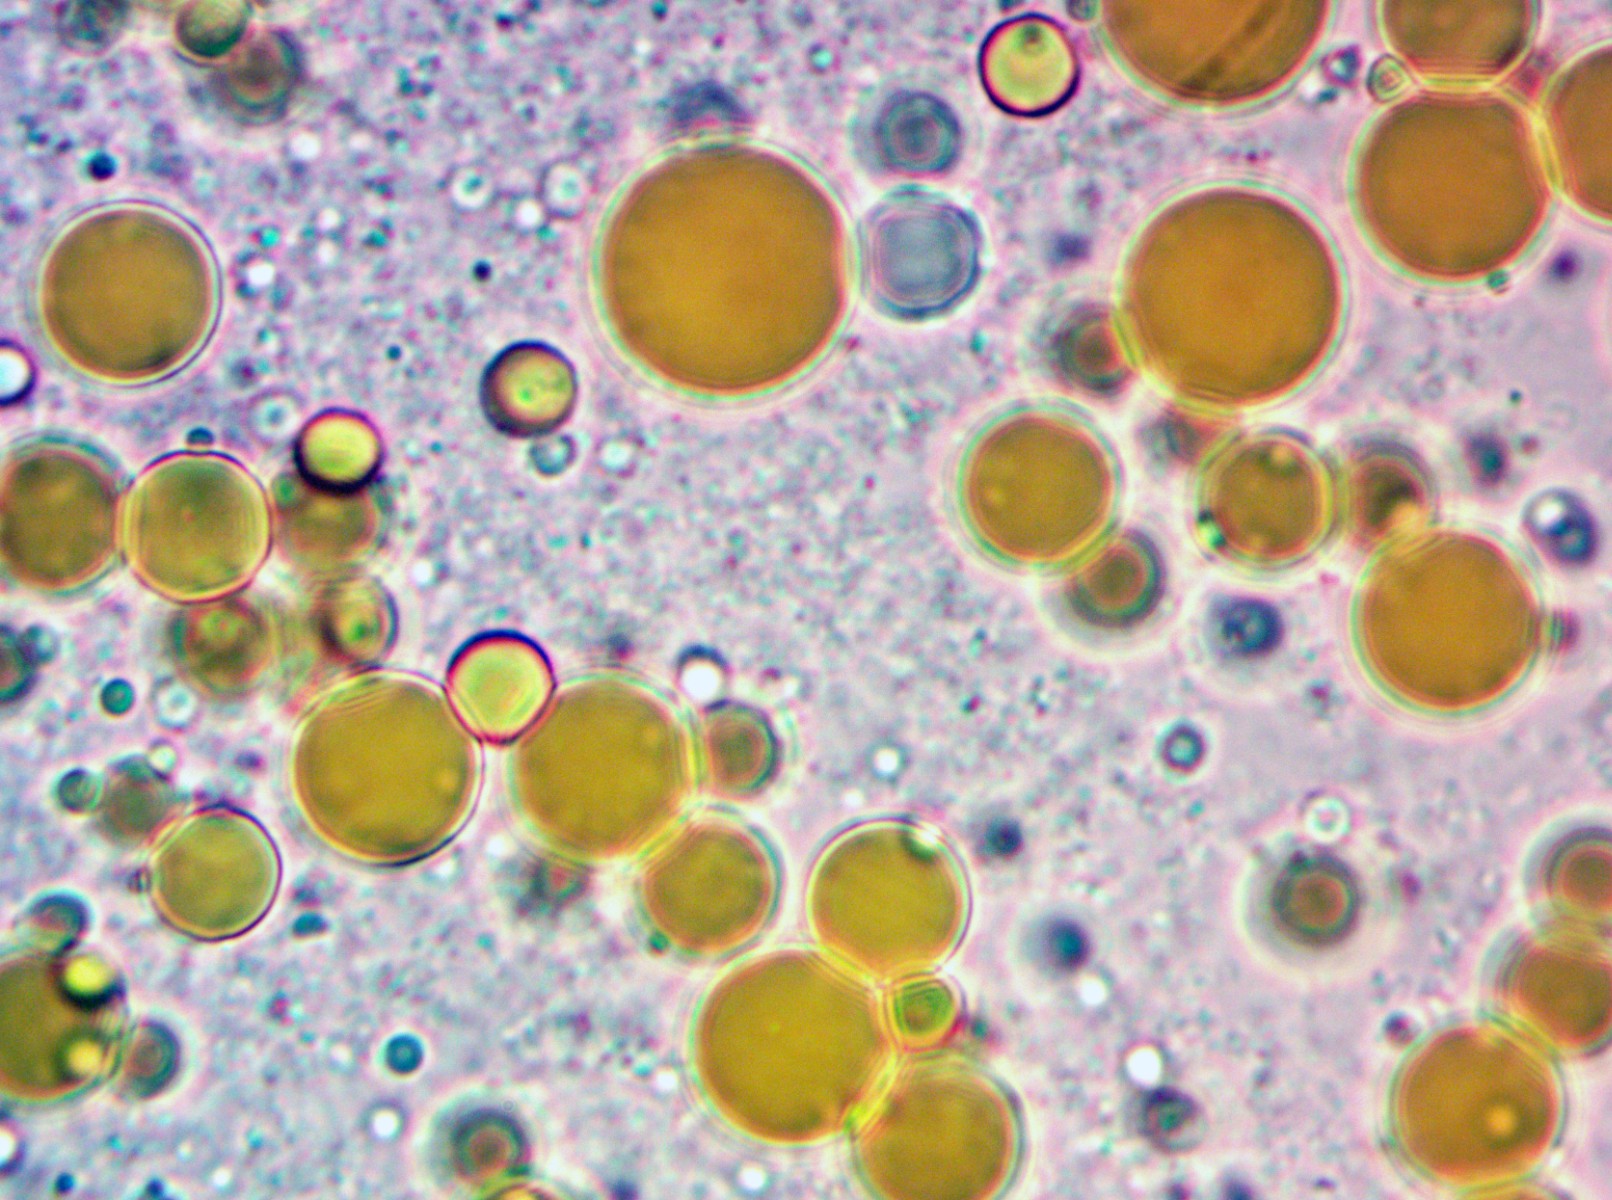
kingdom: Fungi
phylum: Basidiomycota
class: Pucciniomycetes
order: Pucciniales
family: Phragmidiaceae
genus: Phragmidium
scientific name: Phragmidium rubi-idaei
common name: hindbær-flercellerust
